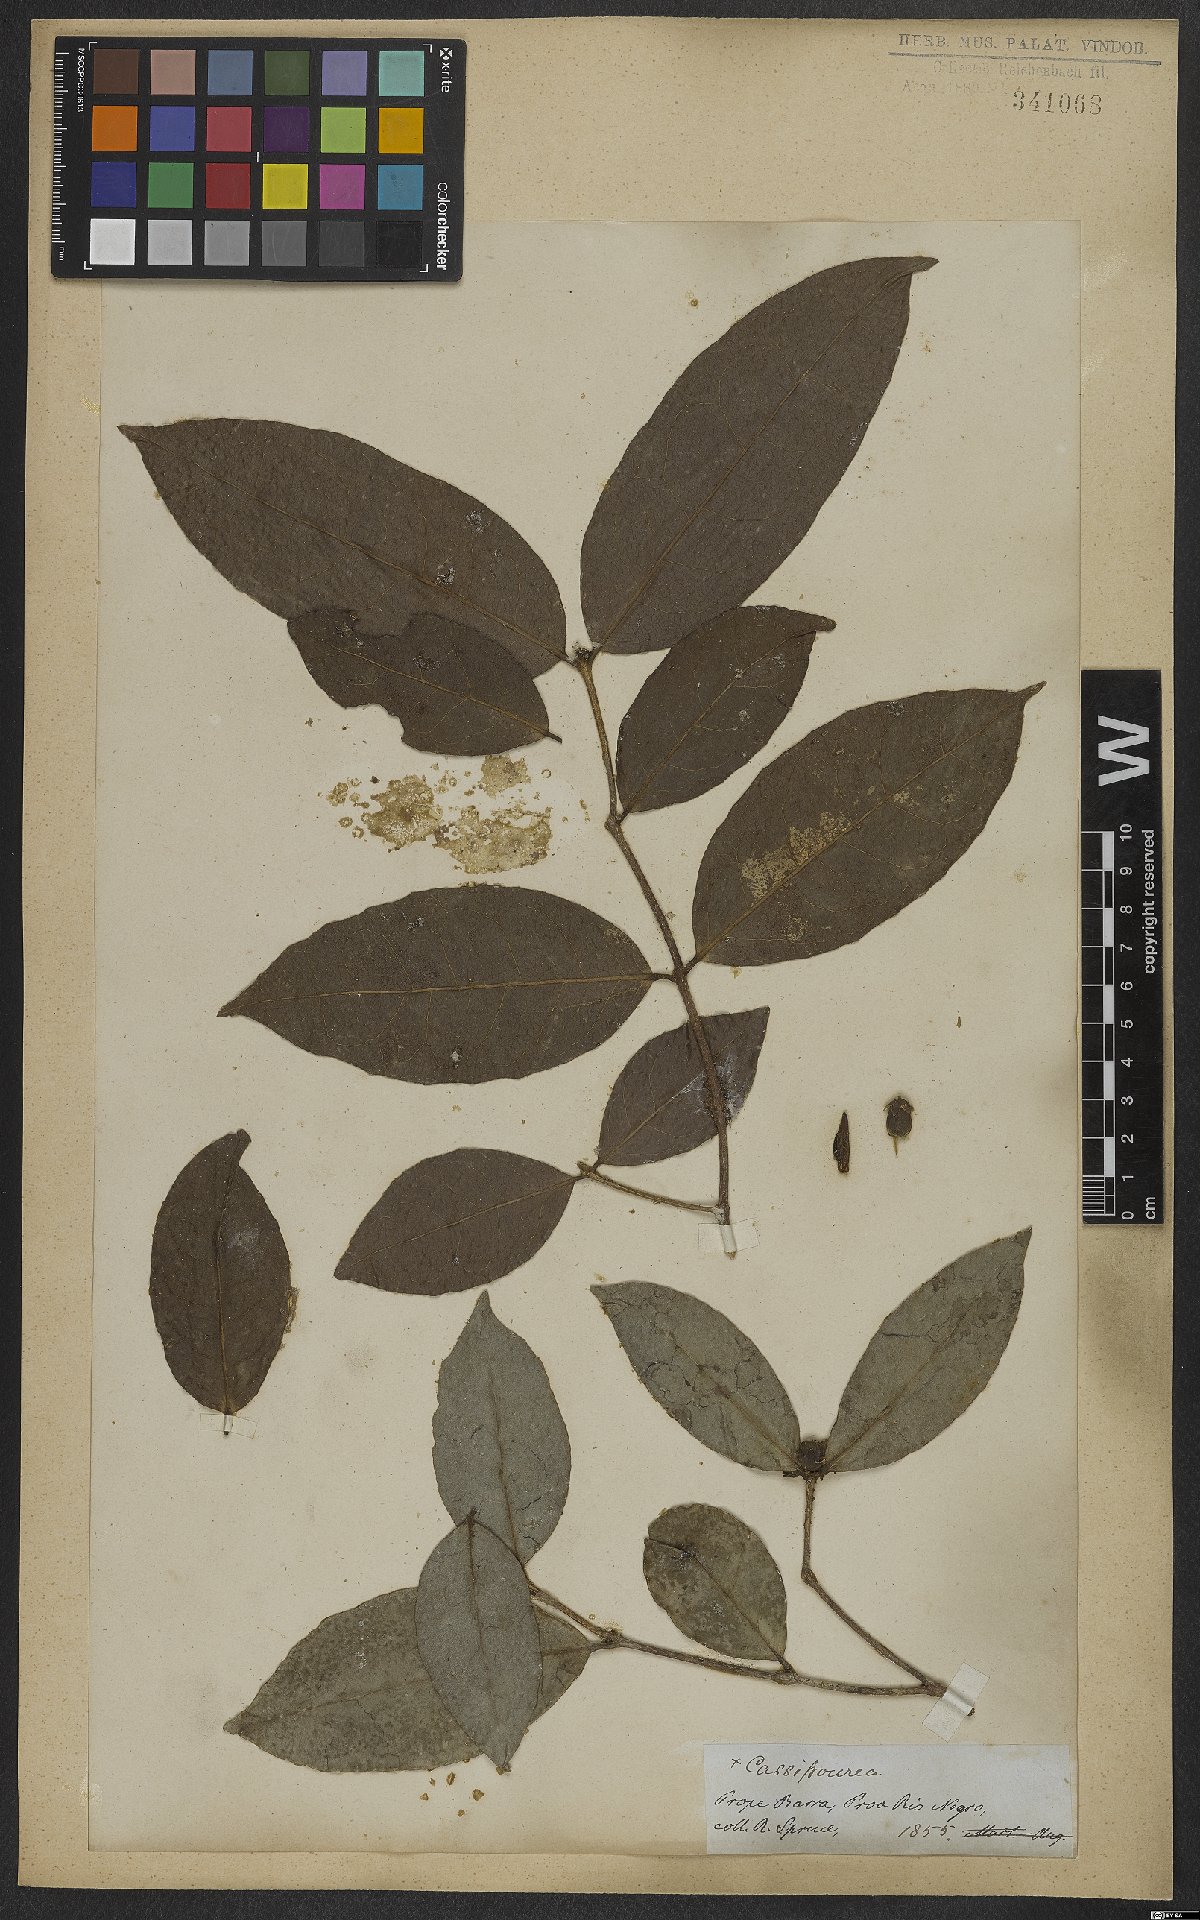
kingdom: Plantae
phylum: Tracheophyta
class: Magnoliopsida
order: Malpighiales
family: Rhizophoraceae
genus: Cassipourea
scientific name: Cassipourea guianensis
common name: Bastard waterwood
